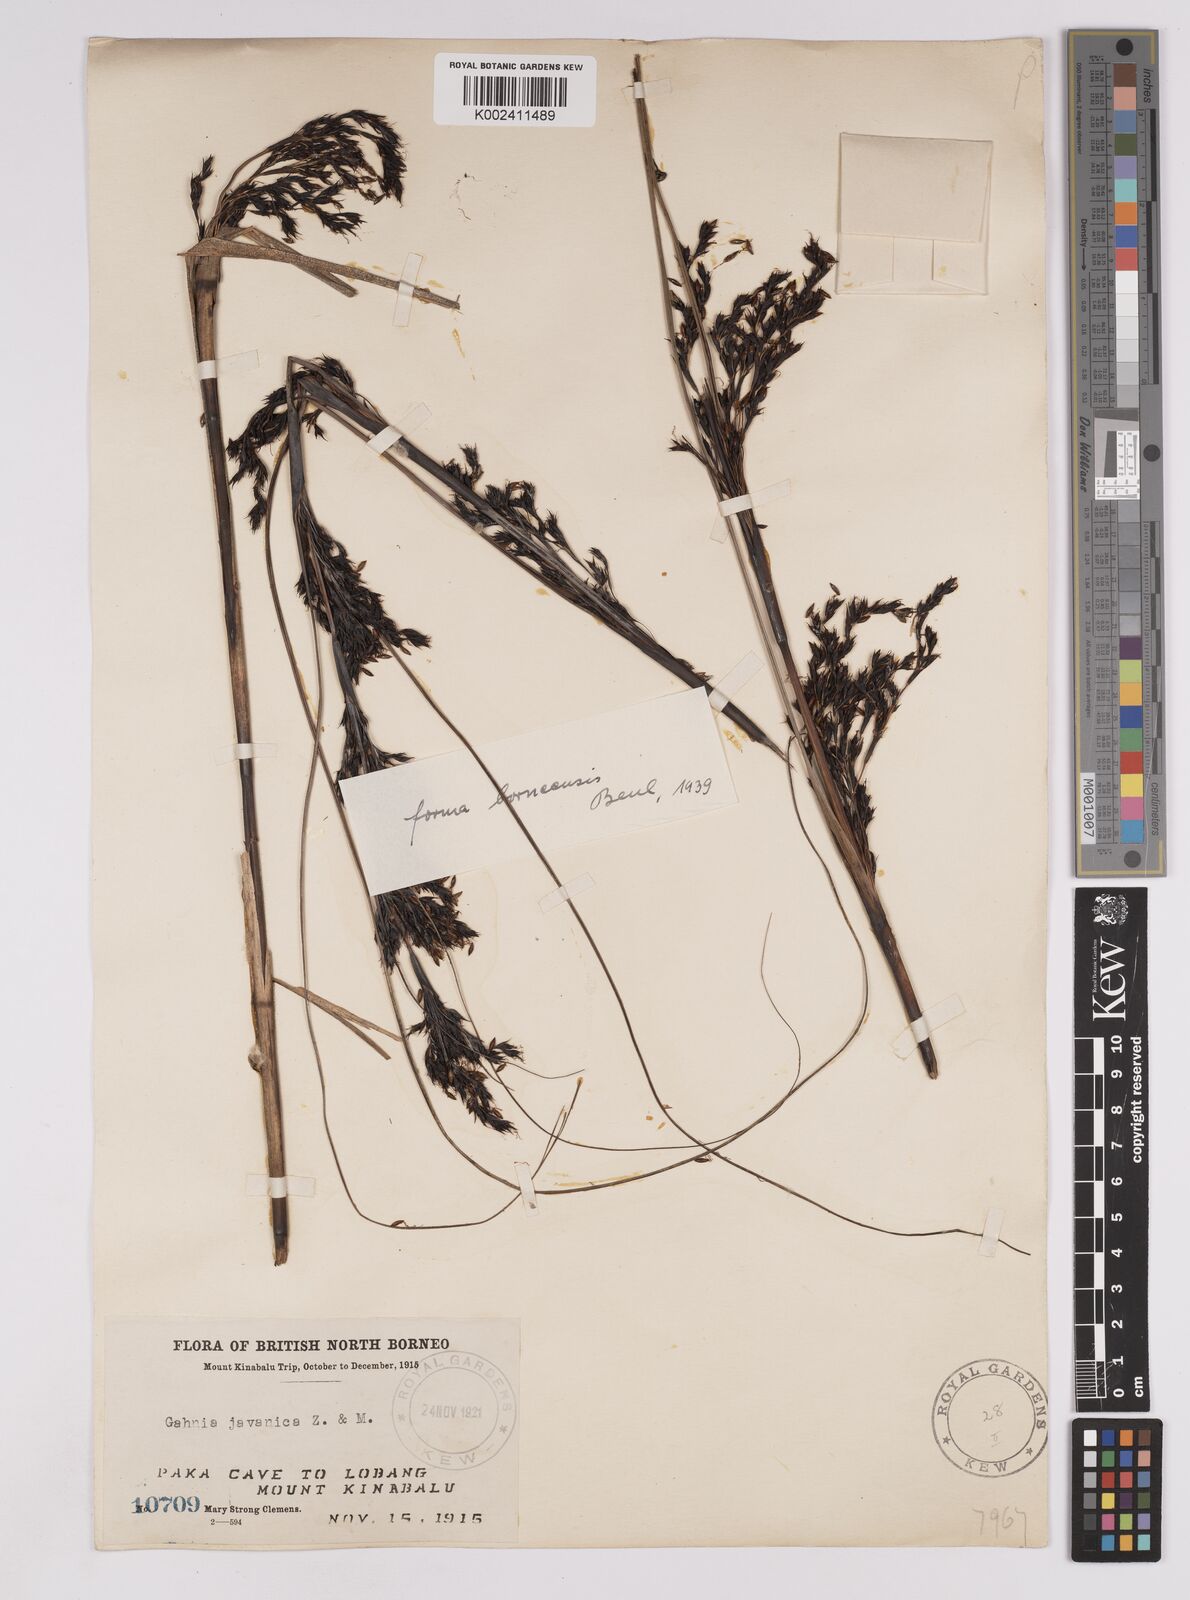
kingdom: Plantae
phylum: Tracheophyta
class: Liliopsida
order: Poales
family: Cyperaceae
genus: Gahnia
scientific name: Gahnia javanica
